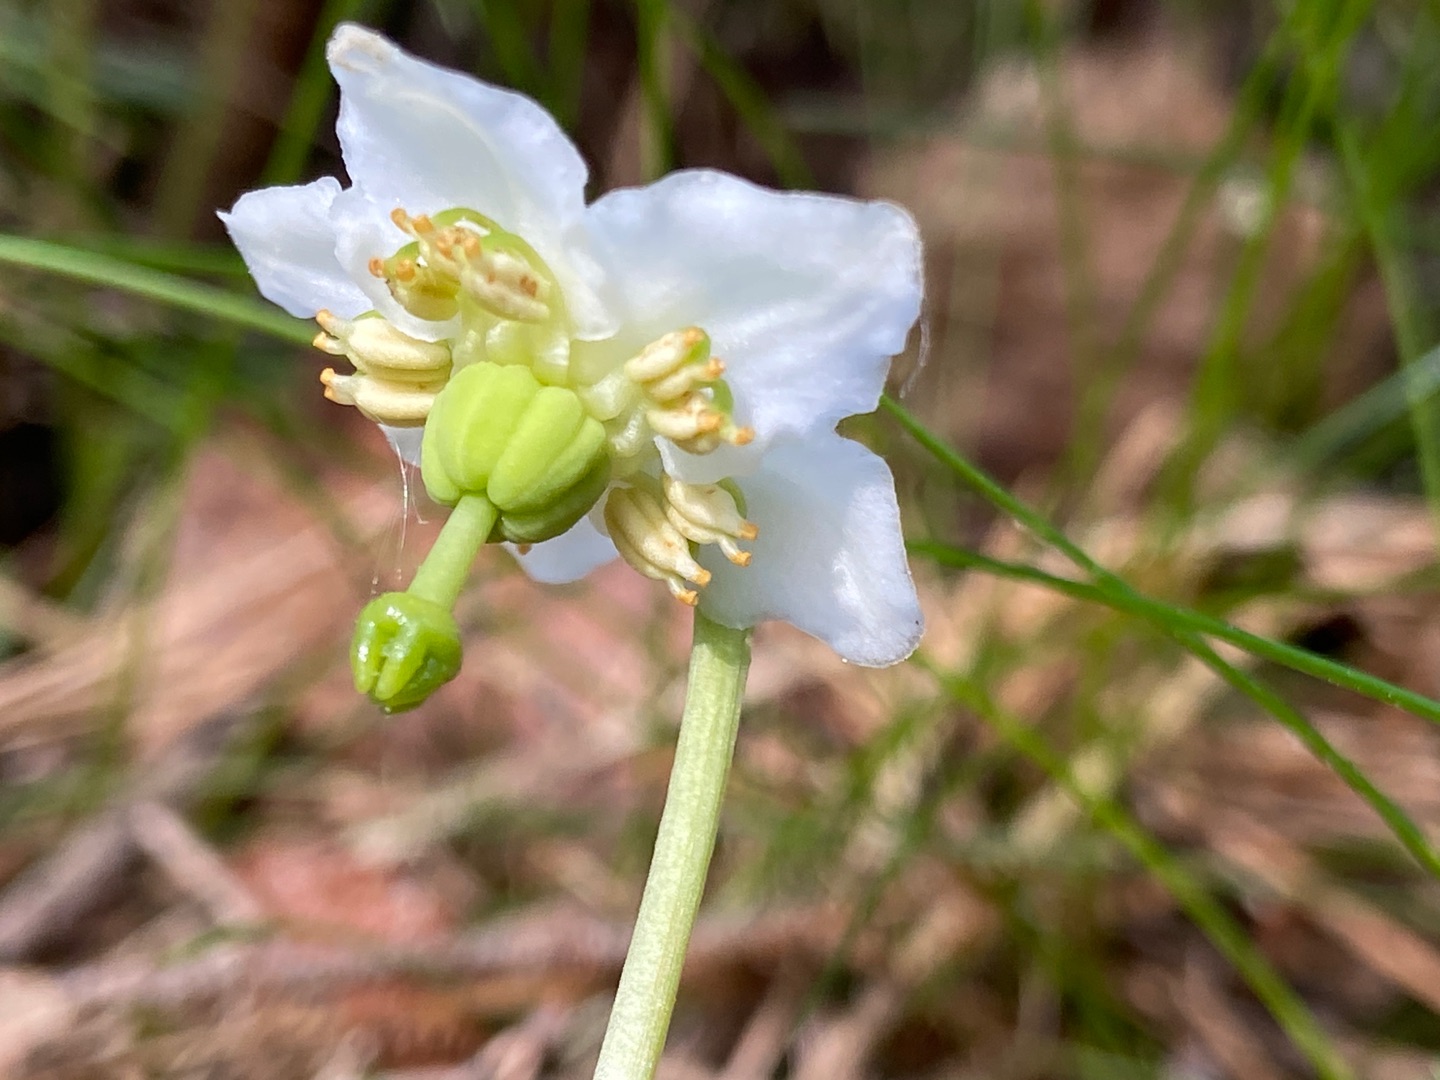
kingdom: Plantae
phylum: Tracheophyta
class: Magnoliopsida
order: Ericales
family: Ericaceae
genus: Moneses
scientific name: Moneses uniflora
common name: Enblomstret vintergrøn
